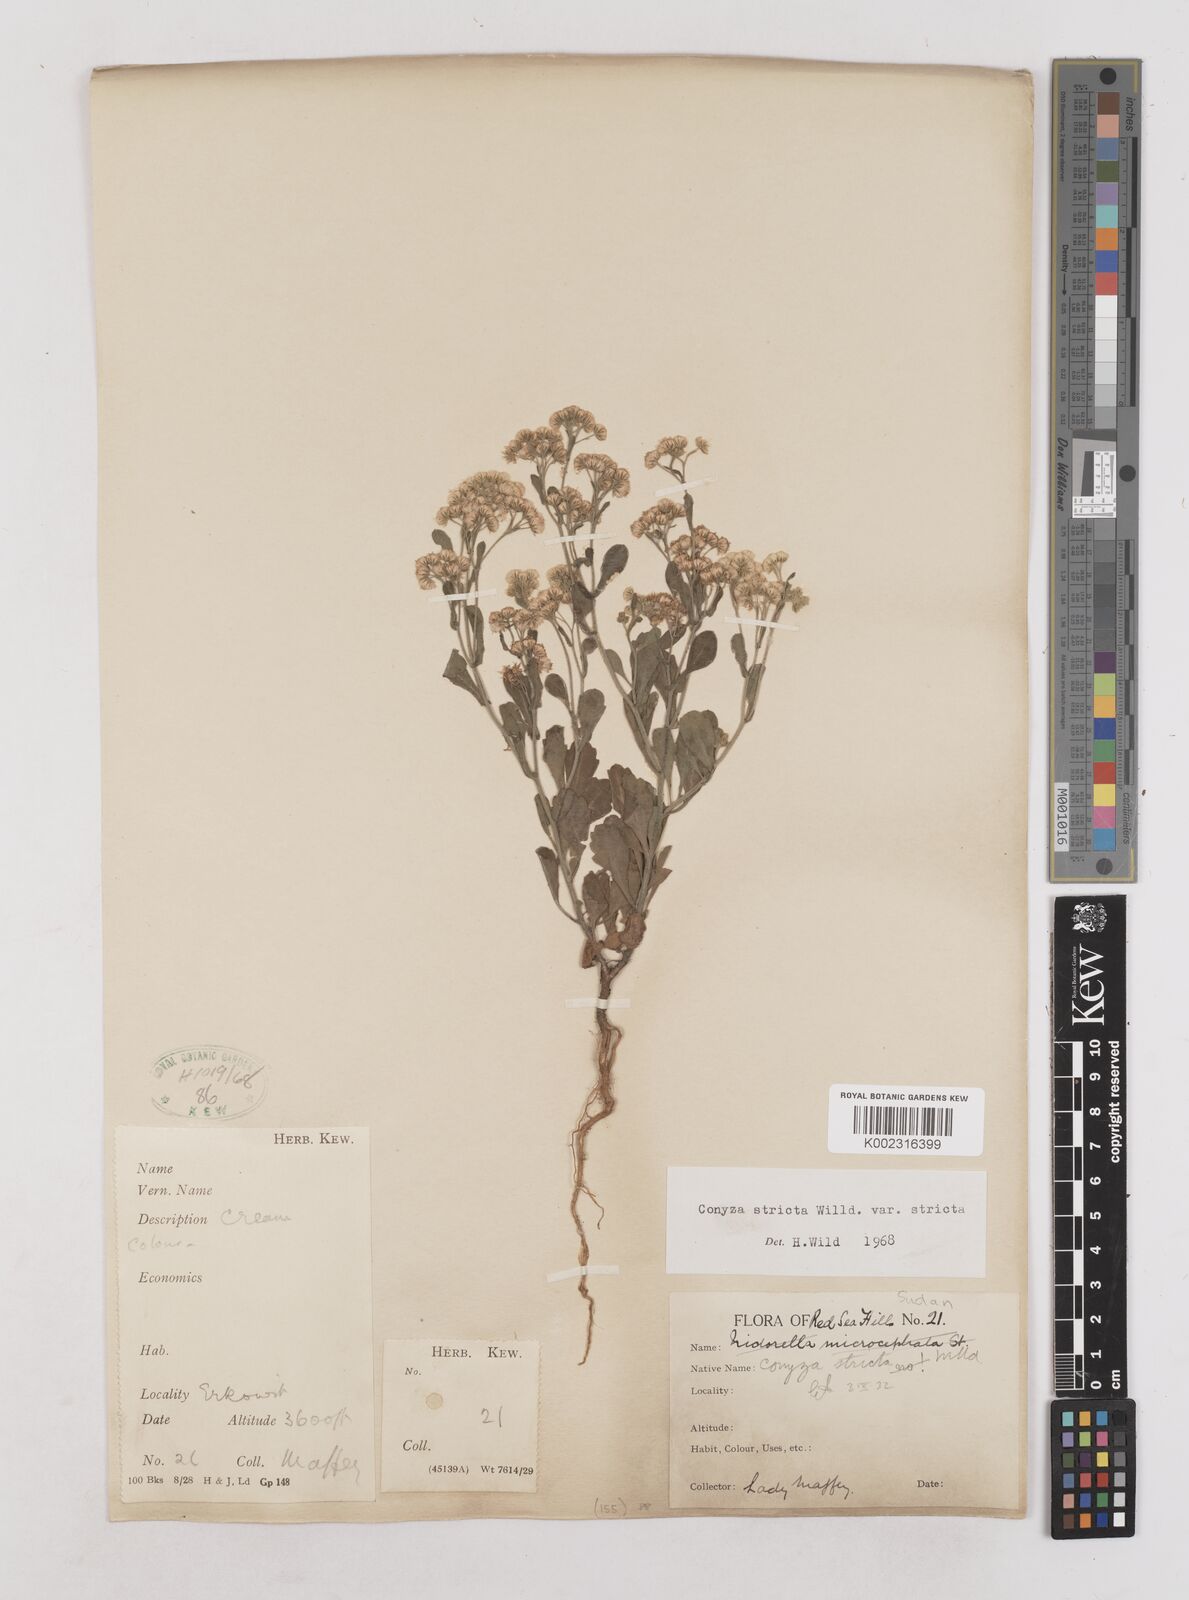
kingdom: Plantae
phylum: Tracheophyta
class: Magnoliopsida
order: Asterales
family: Asteraceae
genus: Nidorella
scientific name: Nidorella triloba
